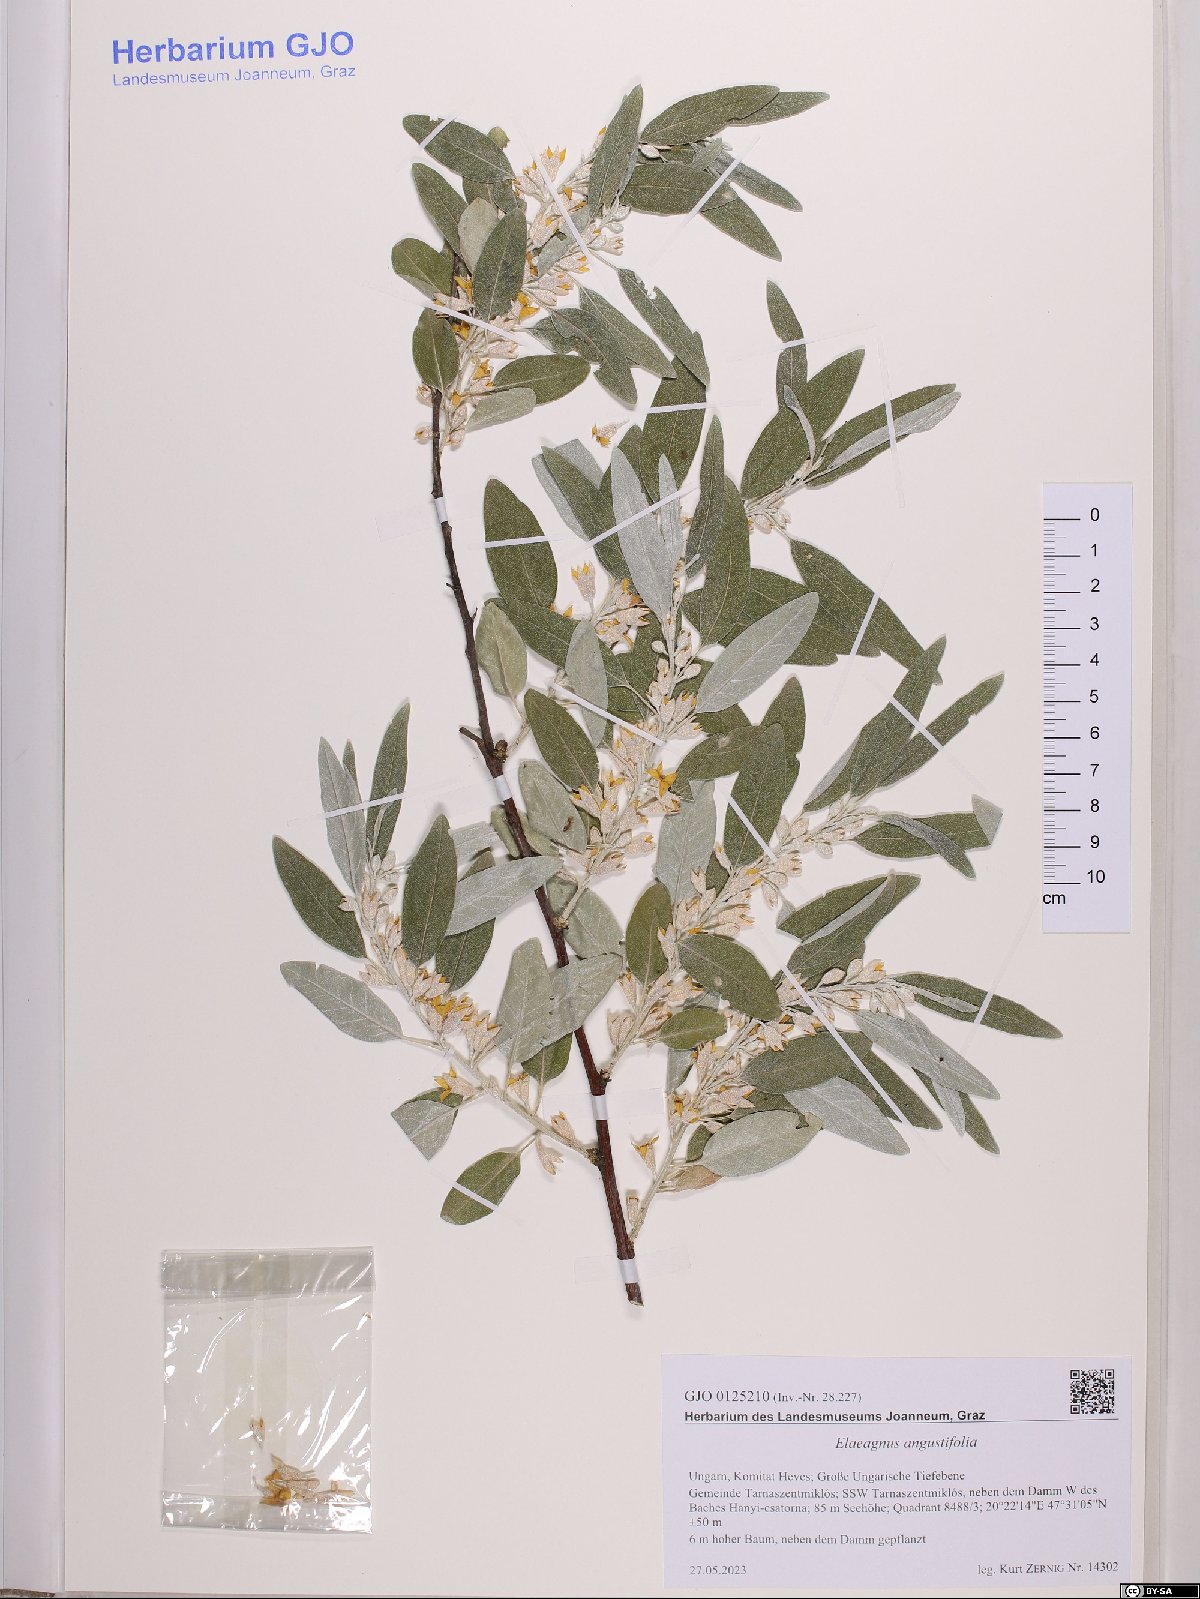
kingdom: Plantae
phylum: Tracheophyta
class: Magnoliopsida
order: Rosales
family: Elaeagnaceae
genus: Elaeagnus
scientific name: Elaeagnus angustifolia
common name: Russian olive
